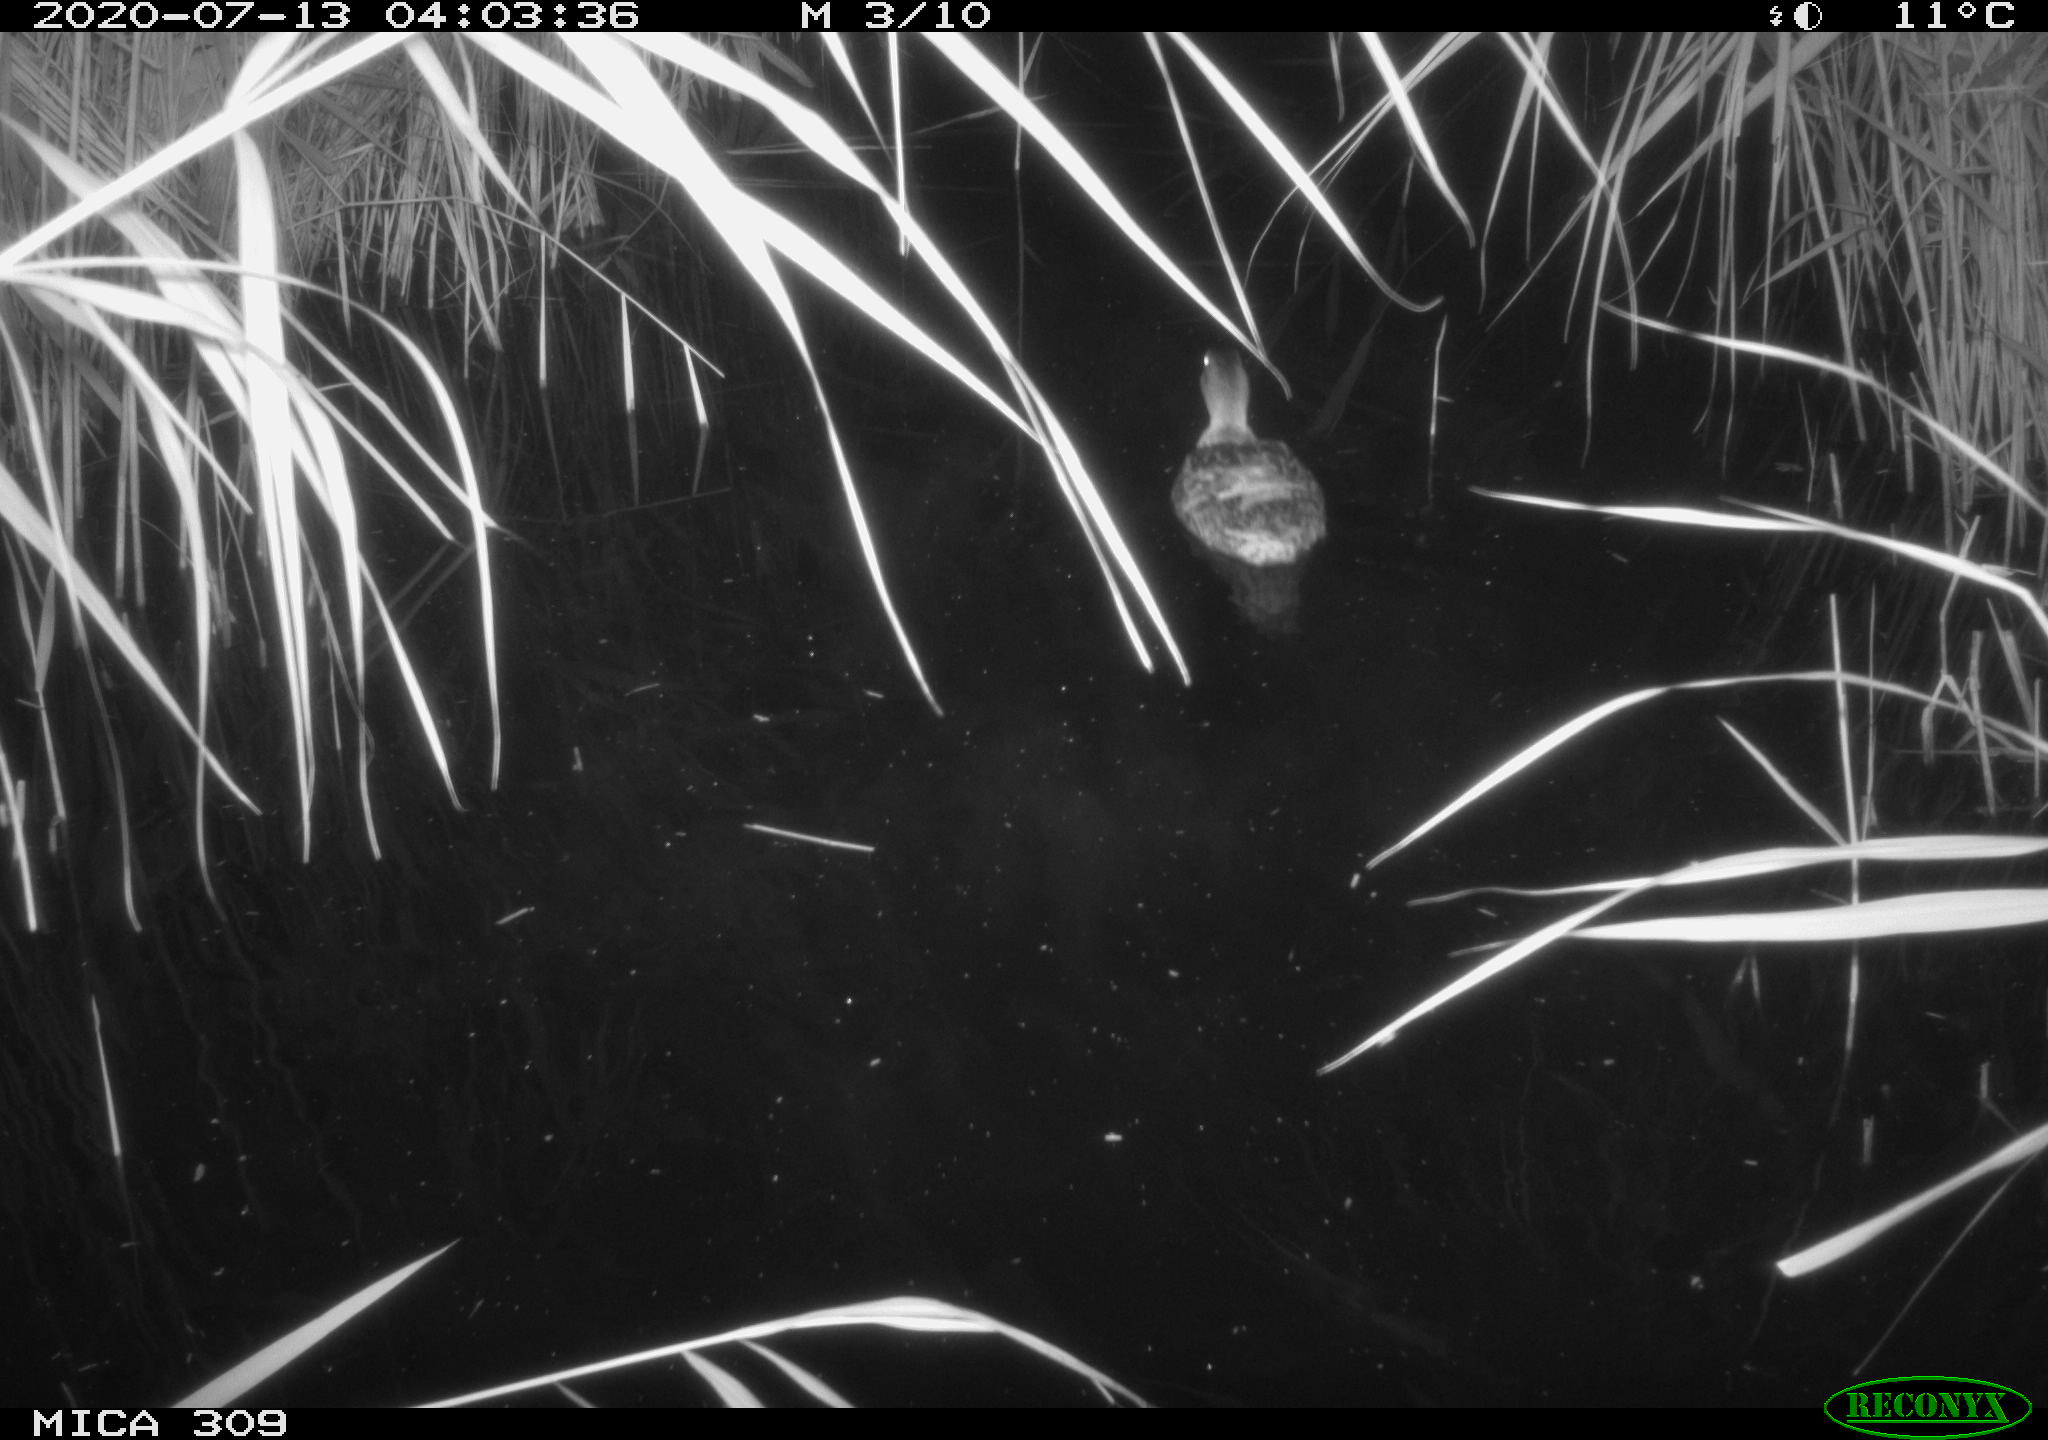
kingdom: Animalia
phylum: Chordata
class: Aves
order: Anseriformes
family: Anatidae
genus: Anas
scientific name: Anas platyrhynchos
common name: Mallard
